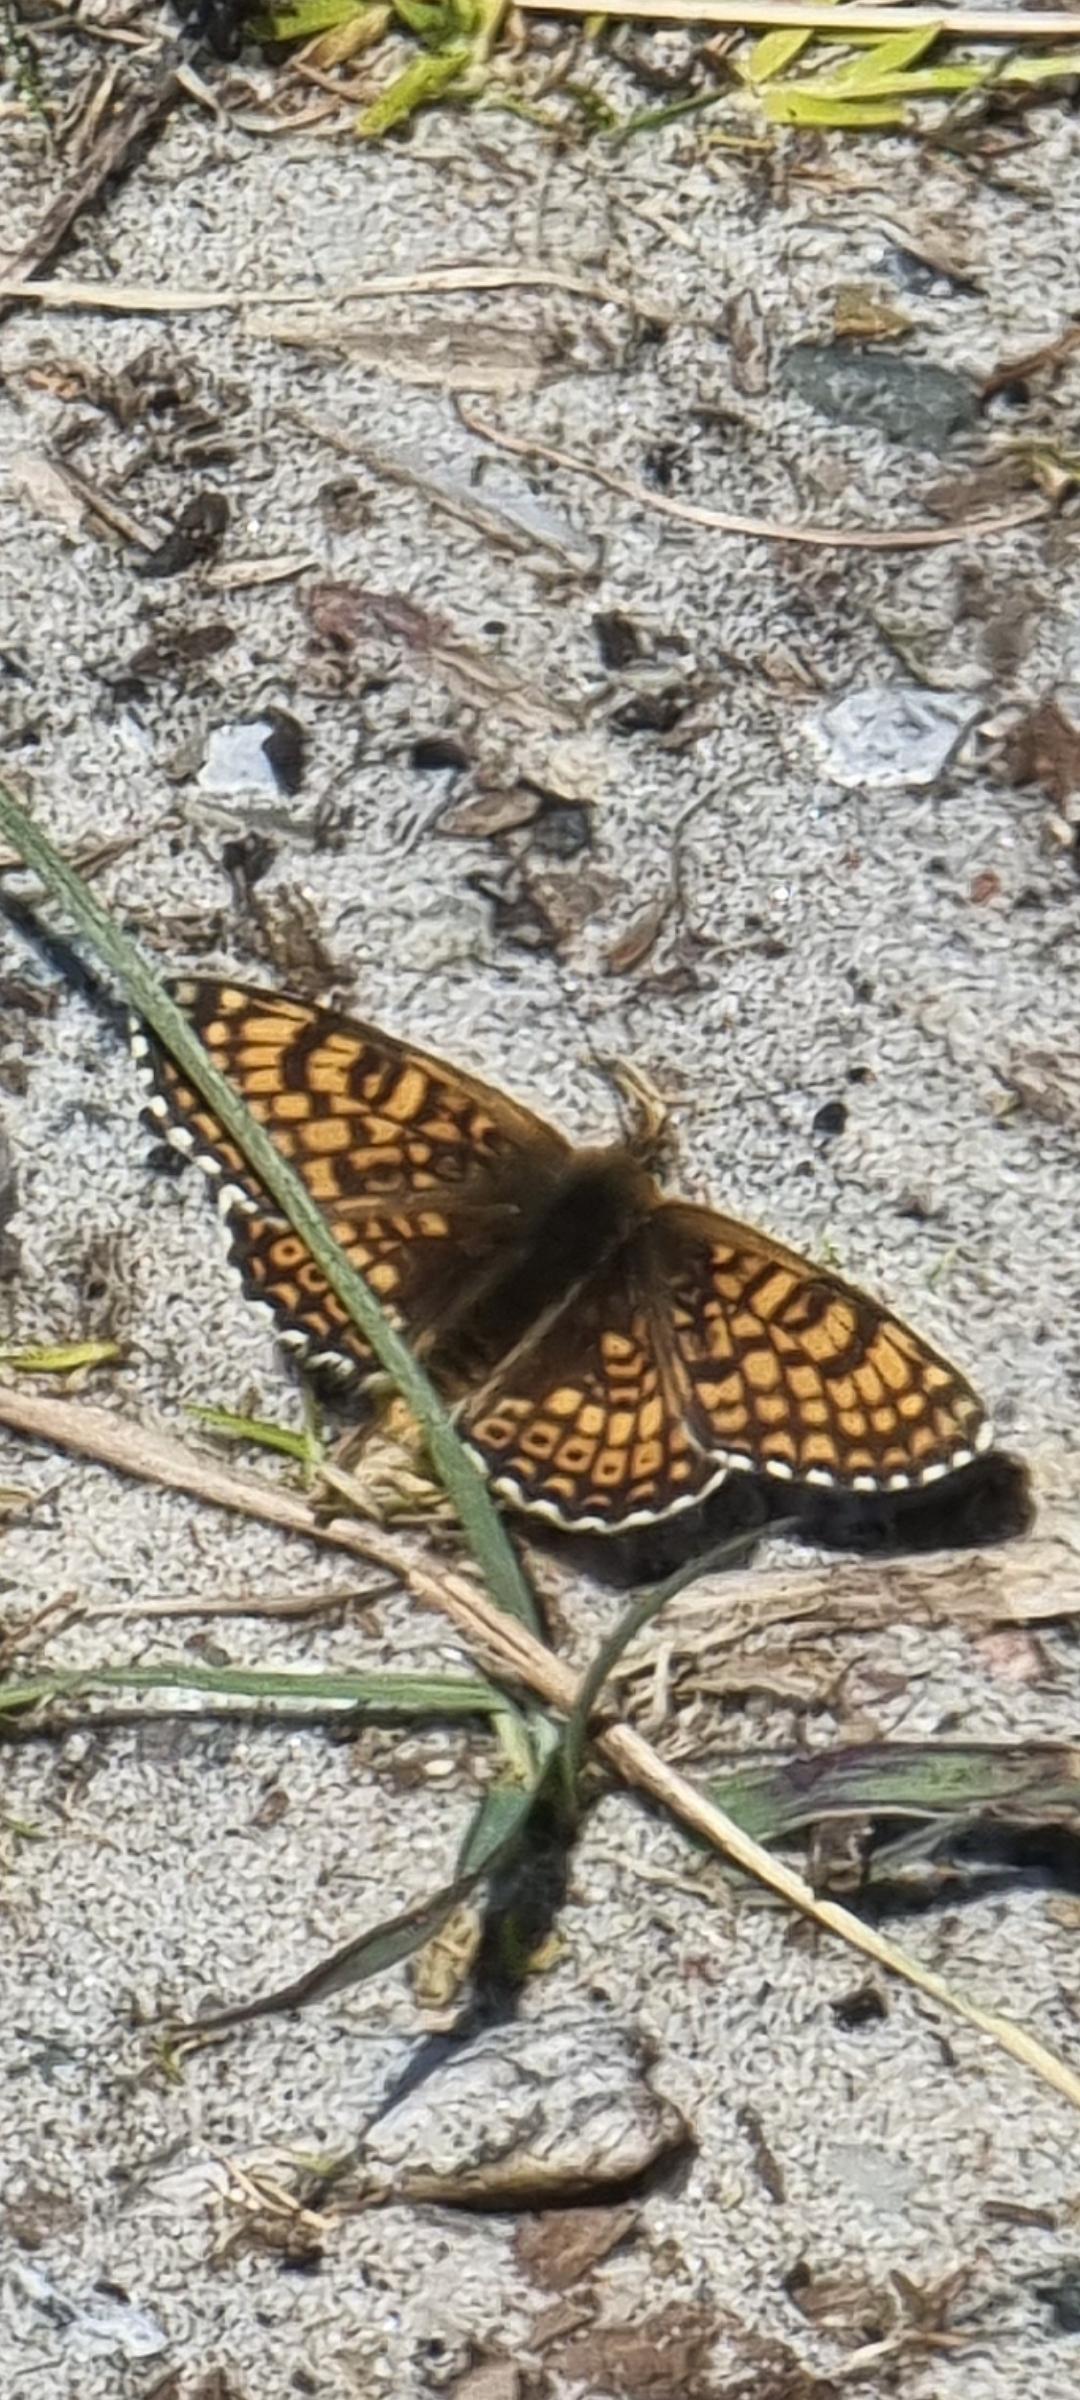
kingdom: Animalia
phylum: Arthropoda
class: Insecta
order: Lepidoptera
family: Nymphalidae
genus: Melitaea
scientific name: Melitaea cinxia
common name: Okkergul pletvinge
